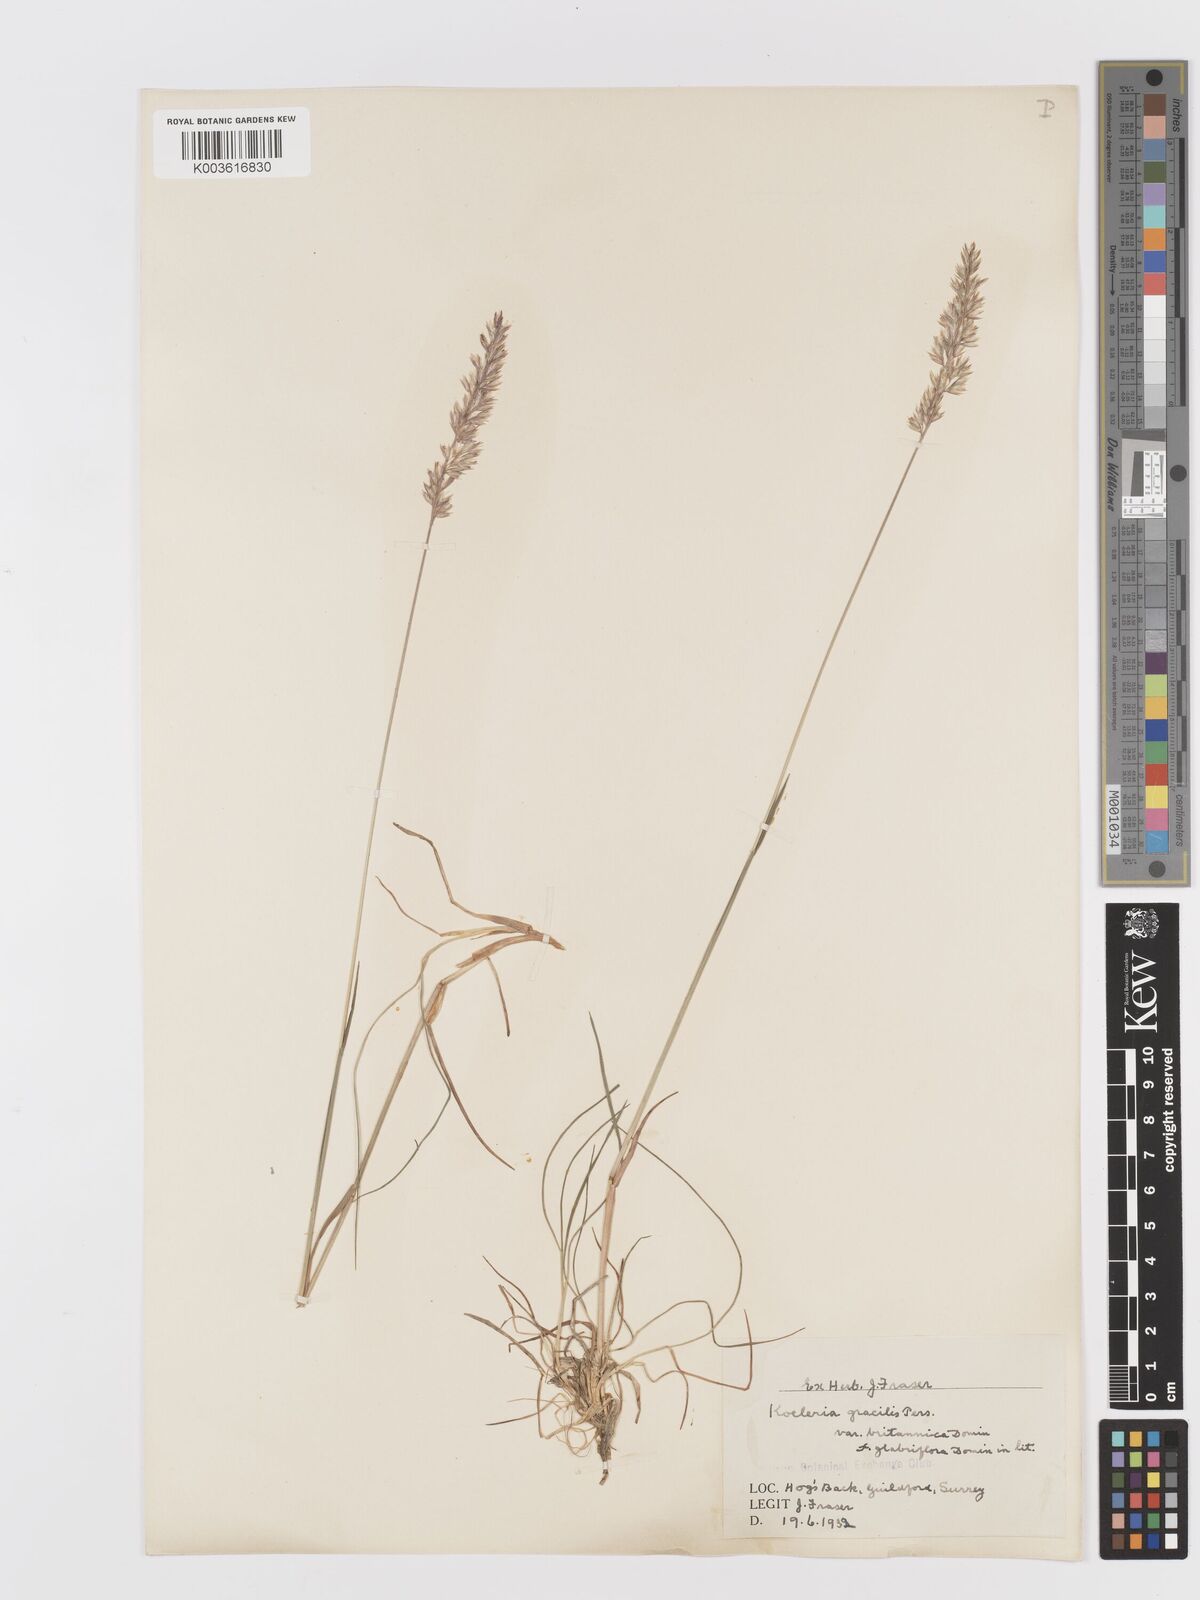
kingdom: Plantae
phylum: Tracheophyta
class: Liliopsida
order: Poales
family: Poaceae
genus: Koeleria
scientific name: Koeleria macrantha
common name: Crested hair-grass
